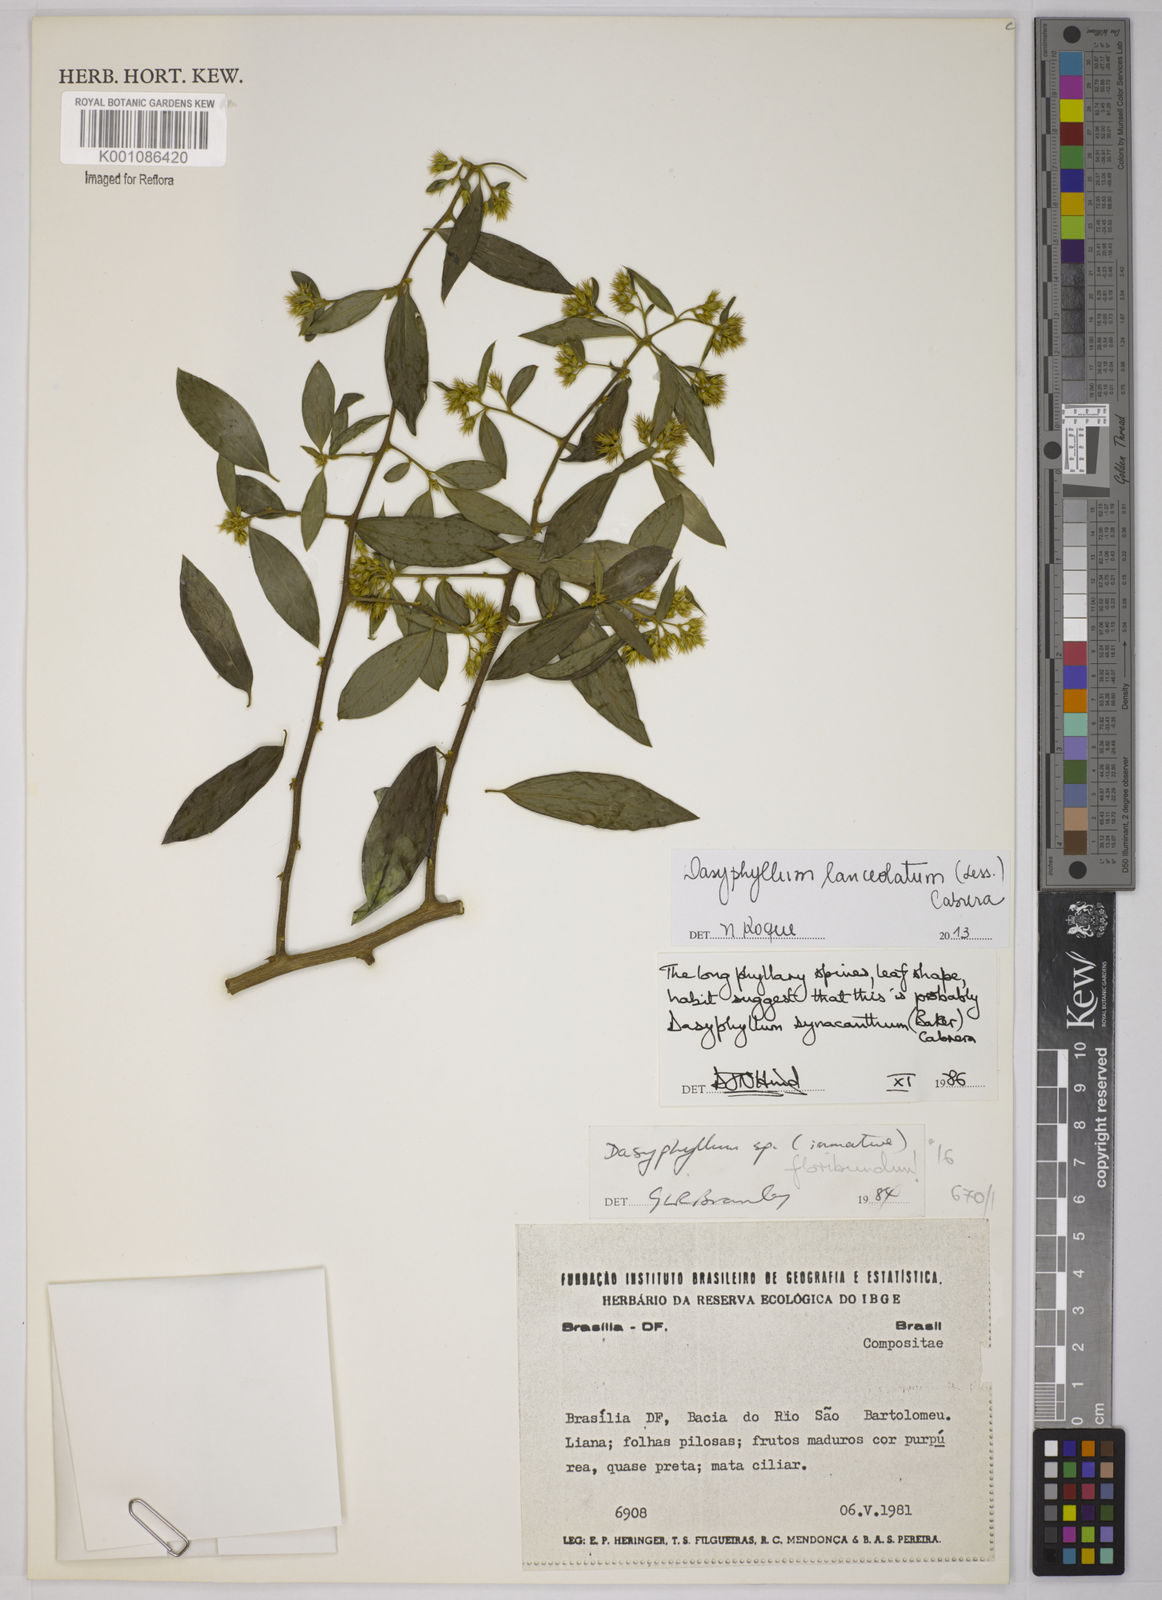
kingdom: Plantae
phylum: Tracheophyta
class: Magnoliopsida
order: Asterales
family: Asteraceae
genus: Dasyphyllum
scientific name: Dasyphyllum lanceolatum
